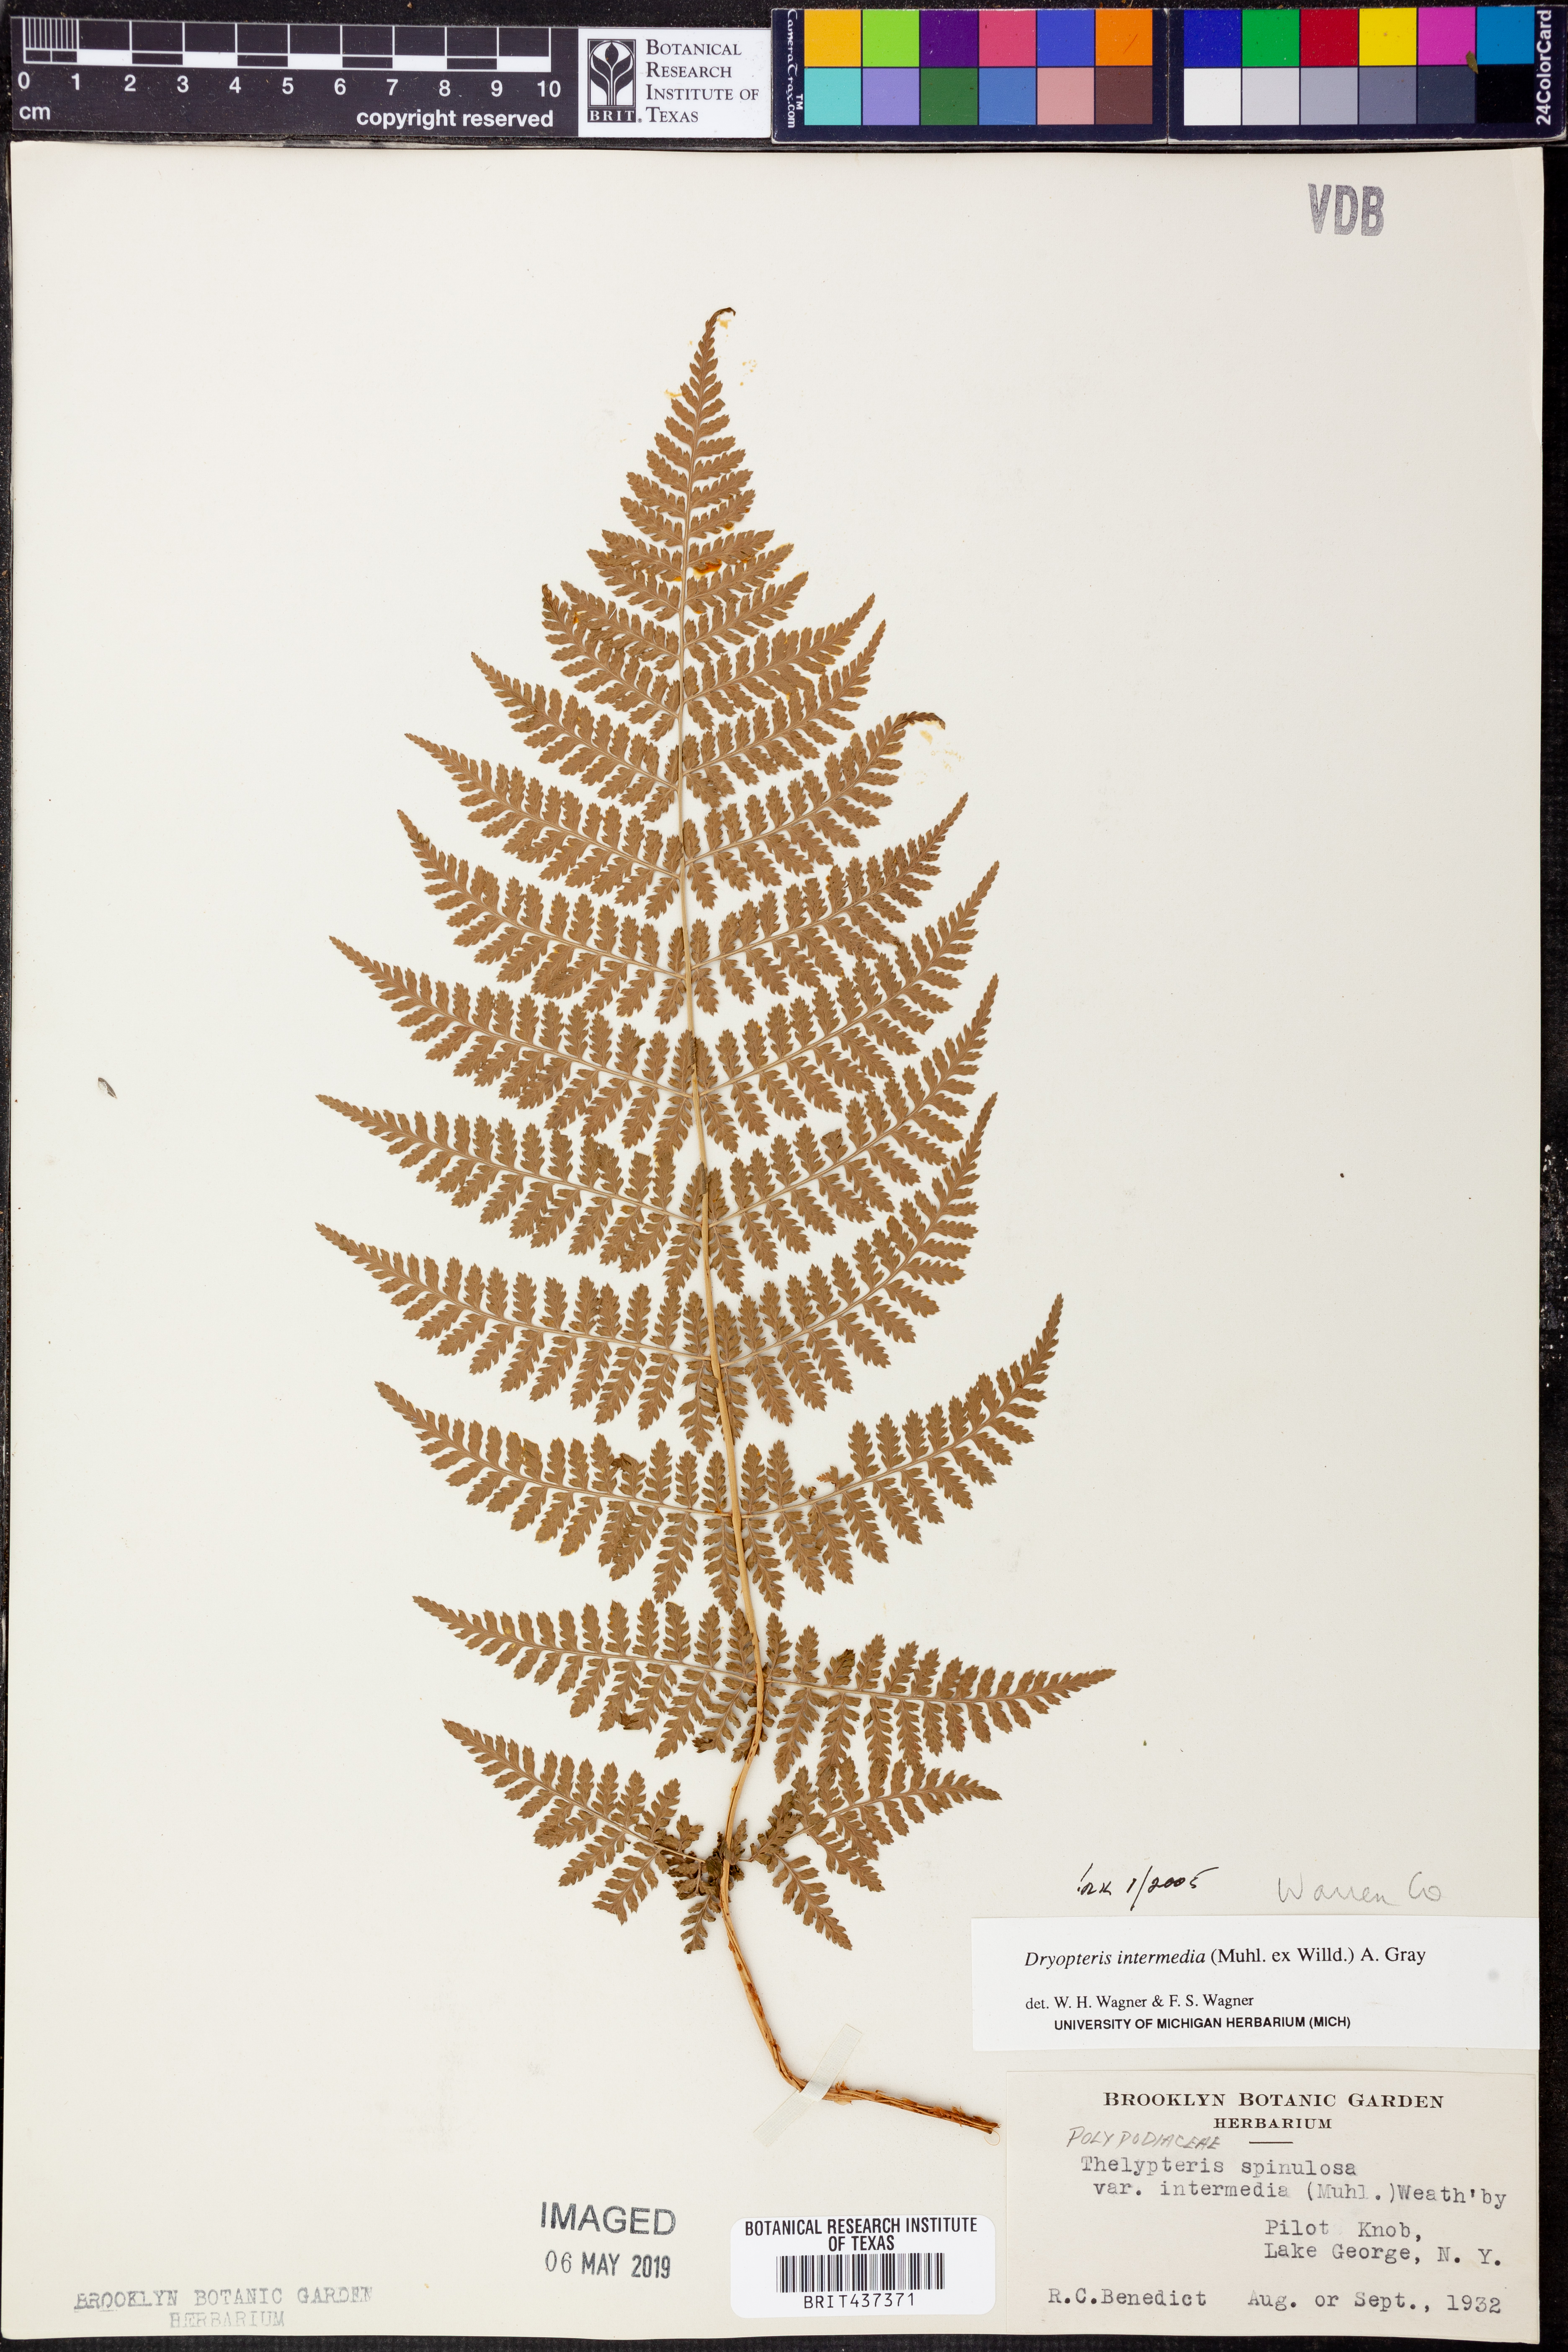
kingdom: Plantae
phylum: Tracheophyta
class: Polypodiopsida
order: Polypodiales
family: Dryopteridaceae
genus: Dryopteris
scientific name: Dryopteris intermedia
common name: Evergreen wood fern
